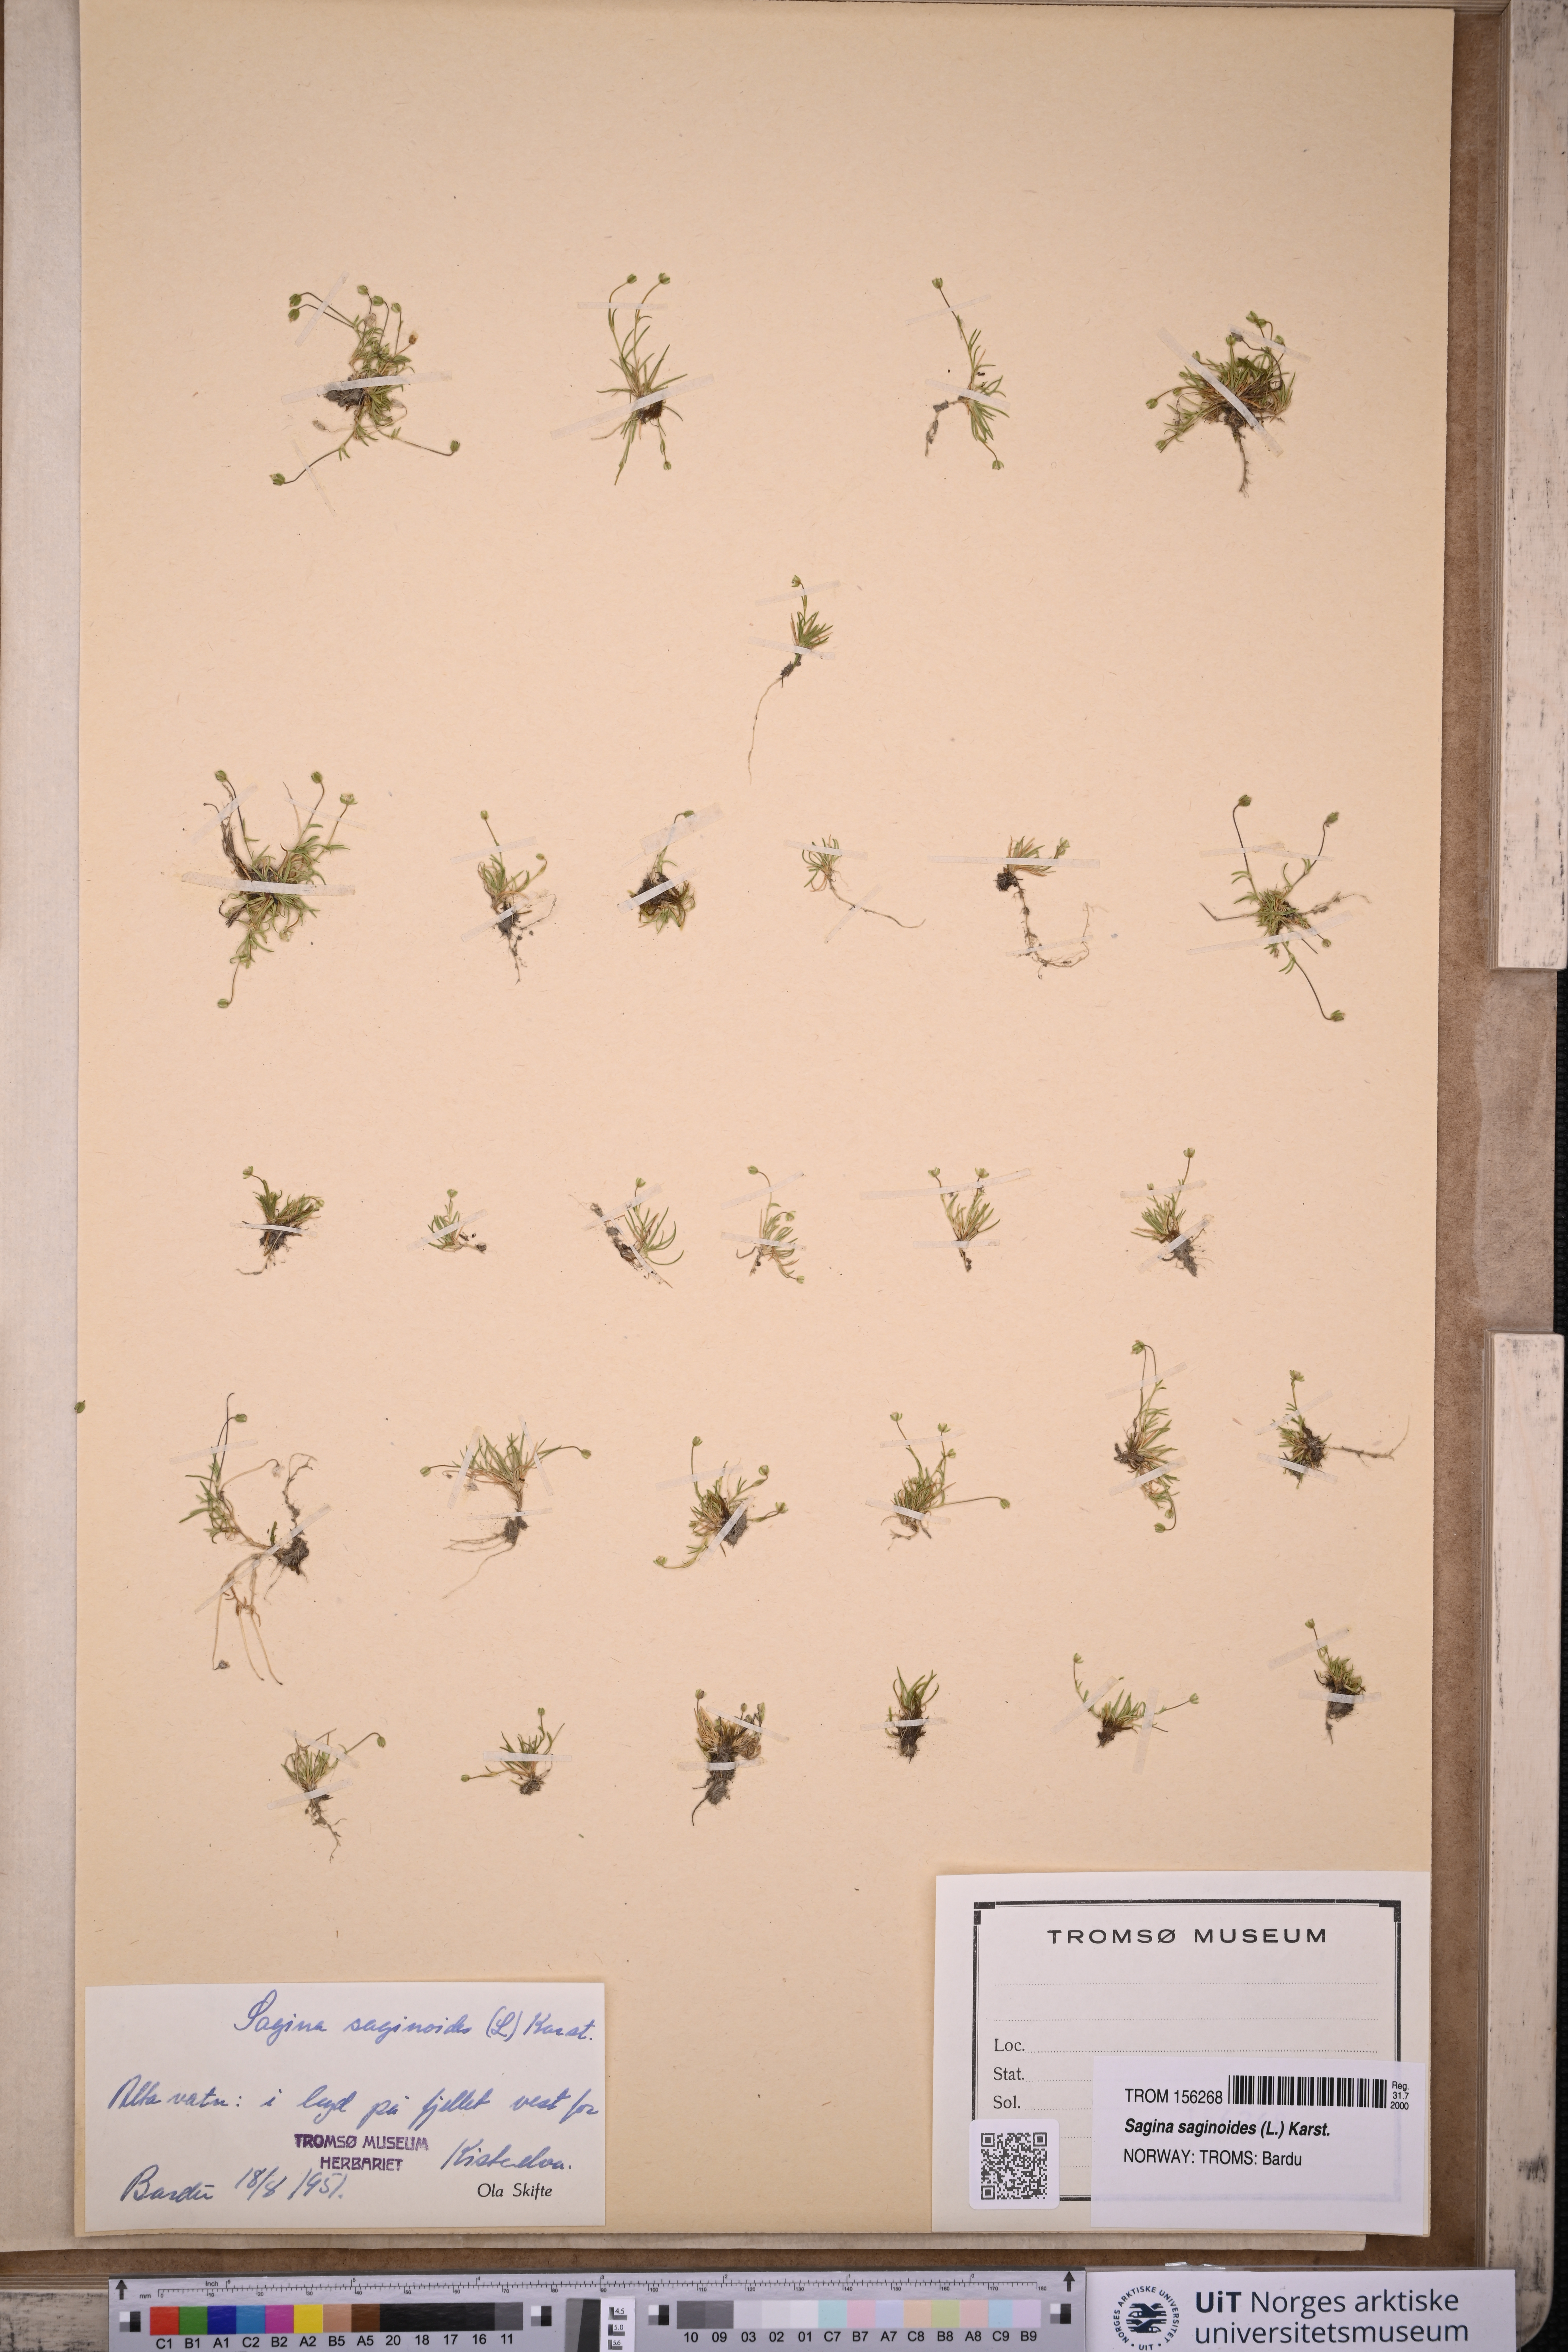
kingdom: Plantae
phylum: Tracheophyta
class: Magnoliopsida
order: Caryophyllales
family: Caryophyllaceae
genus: Sagina
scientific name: Sagina saginoides
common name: Alpine pearlwort
